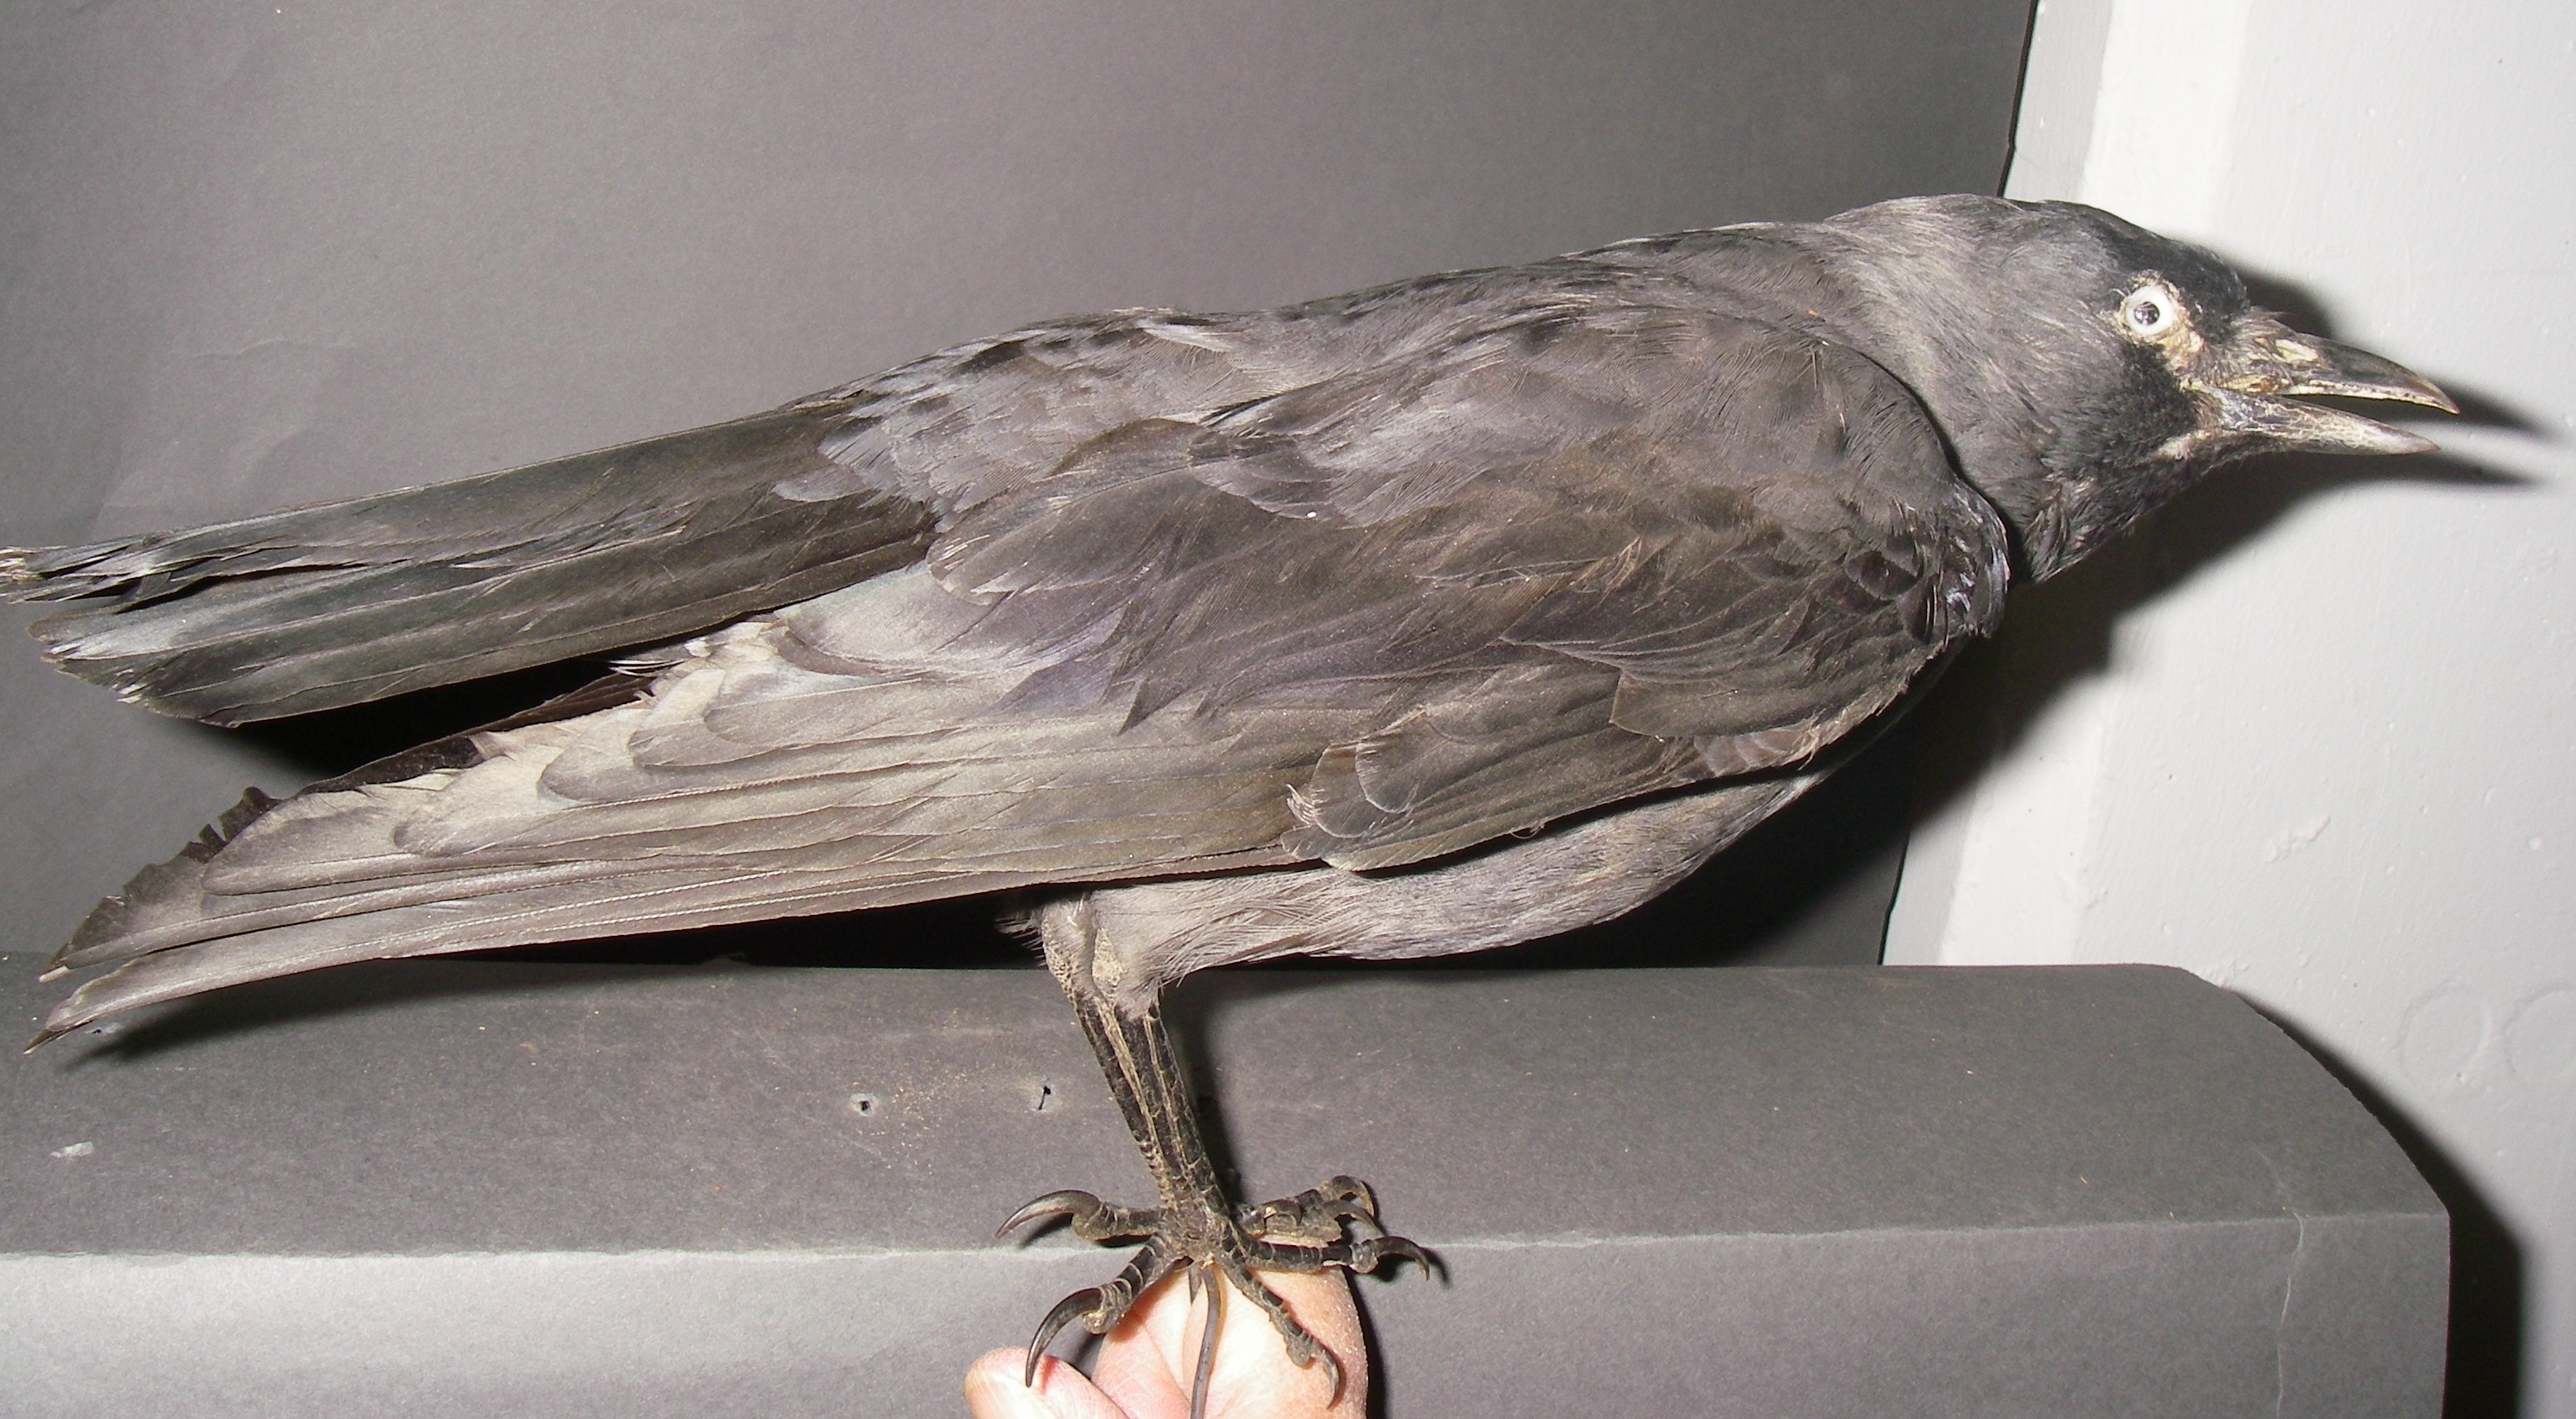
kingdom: Animalia
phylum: Chordata
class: Aves
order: Passeriformes
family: Corvidae
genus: Coloeus
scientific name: Coloeus monedula
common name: Western jackdaw
